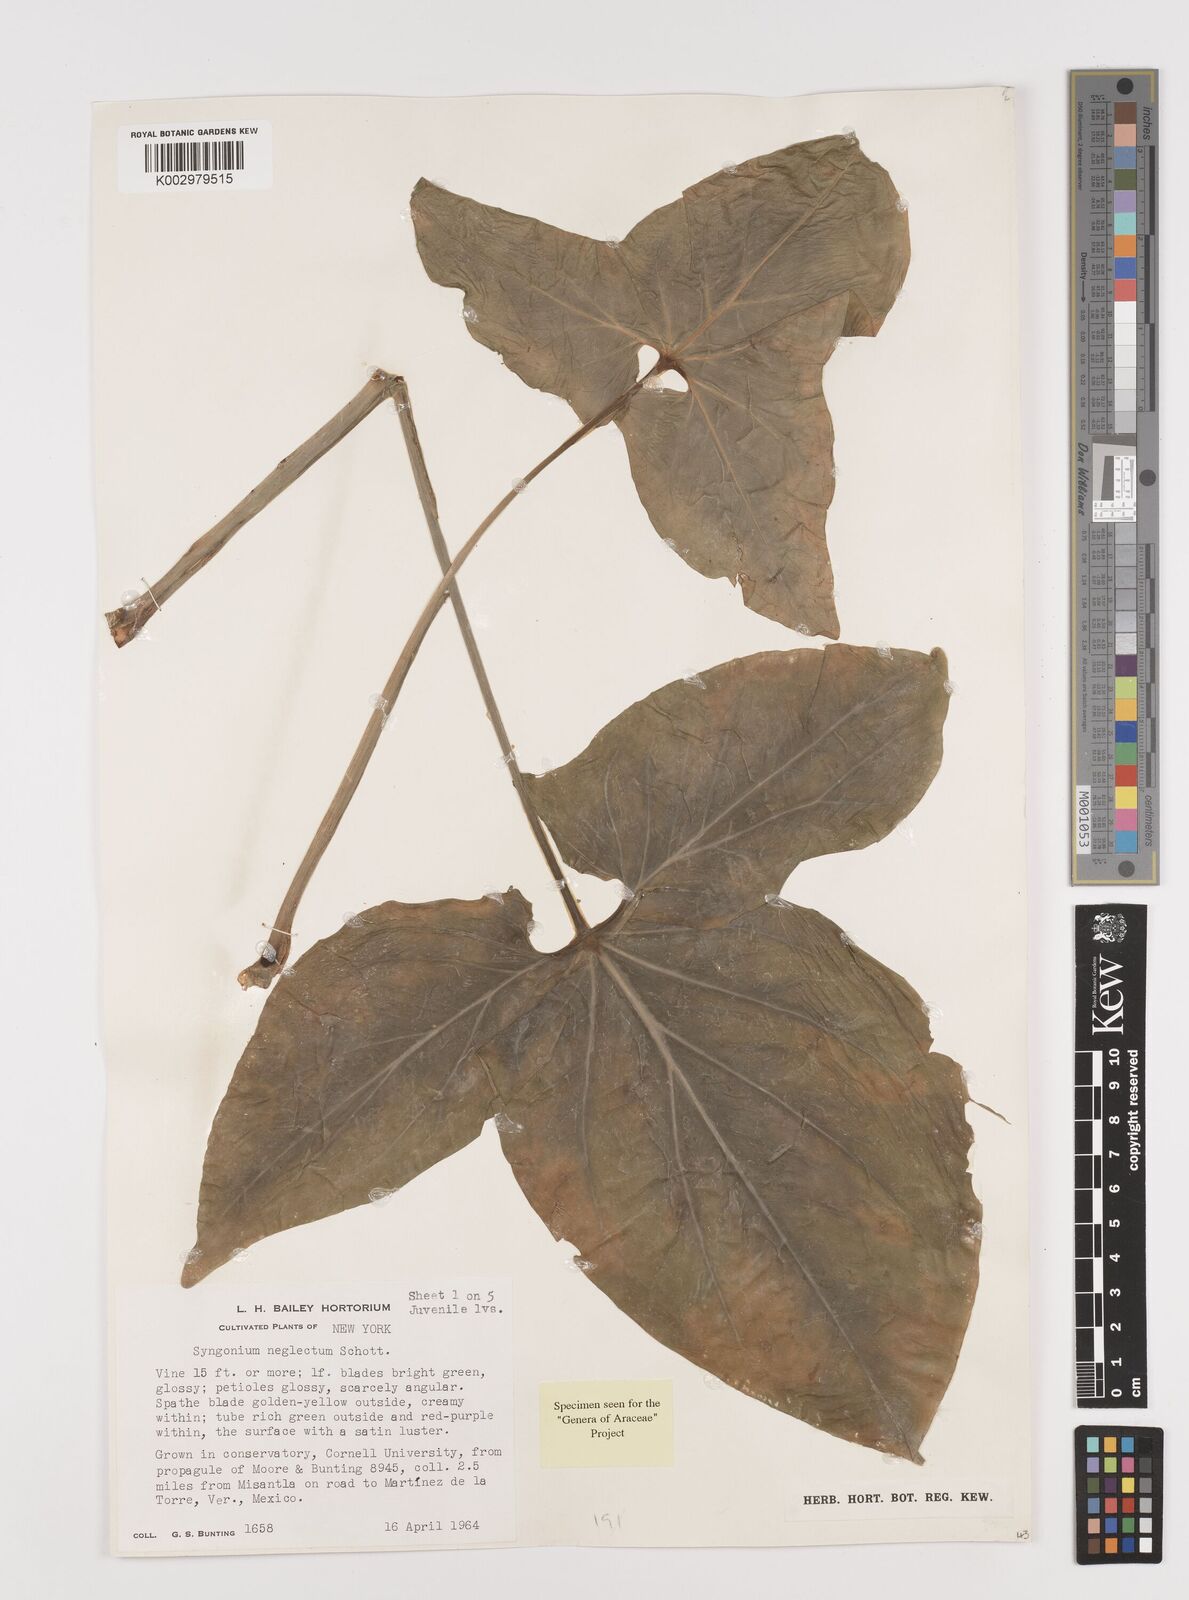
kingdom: Plantae
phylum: Tracheophyta
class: Liliopsida
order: Alismatales
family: Araceae
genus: Syngonium
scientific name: Syngonium neglectum
